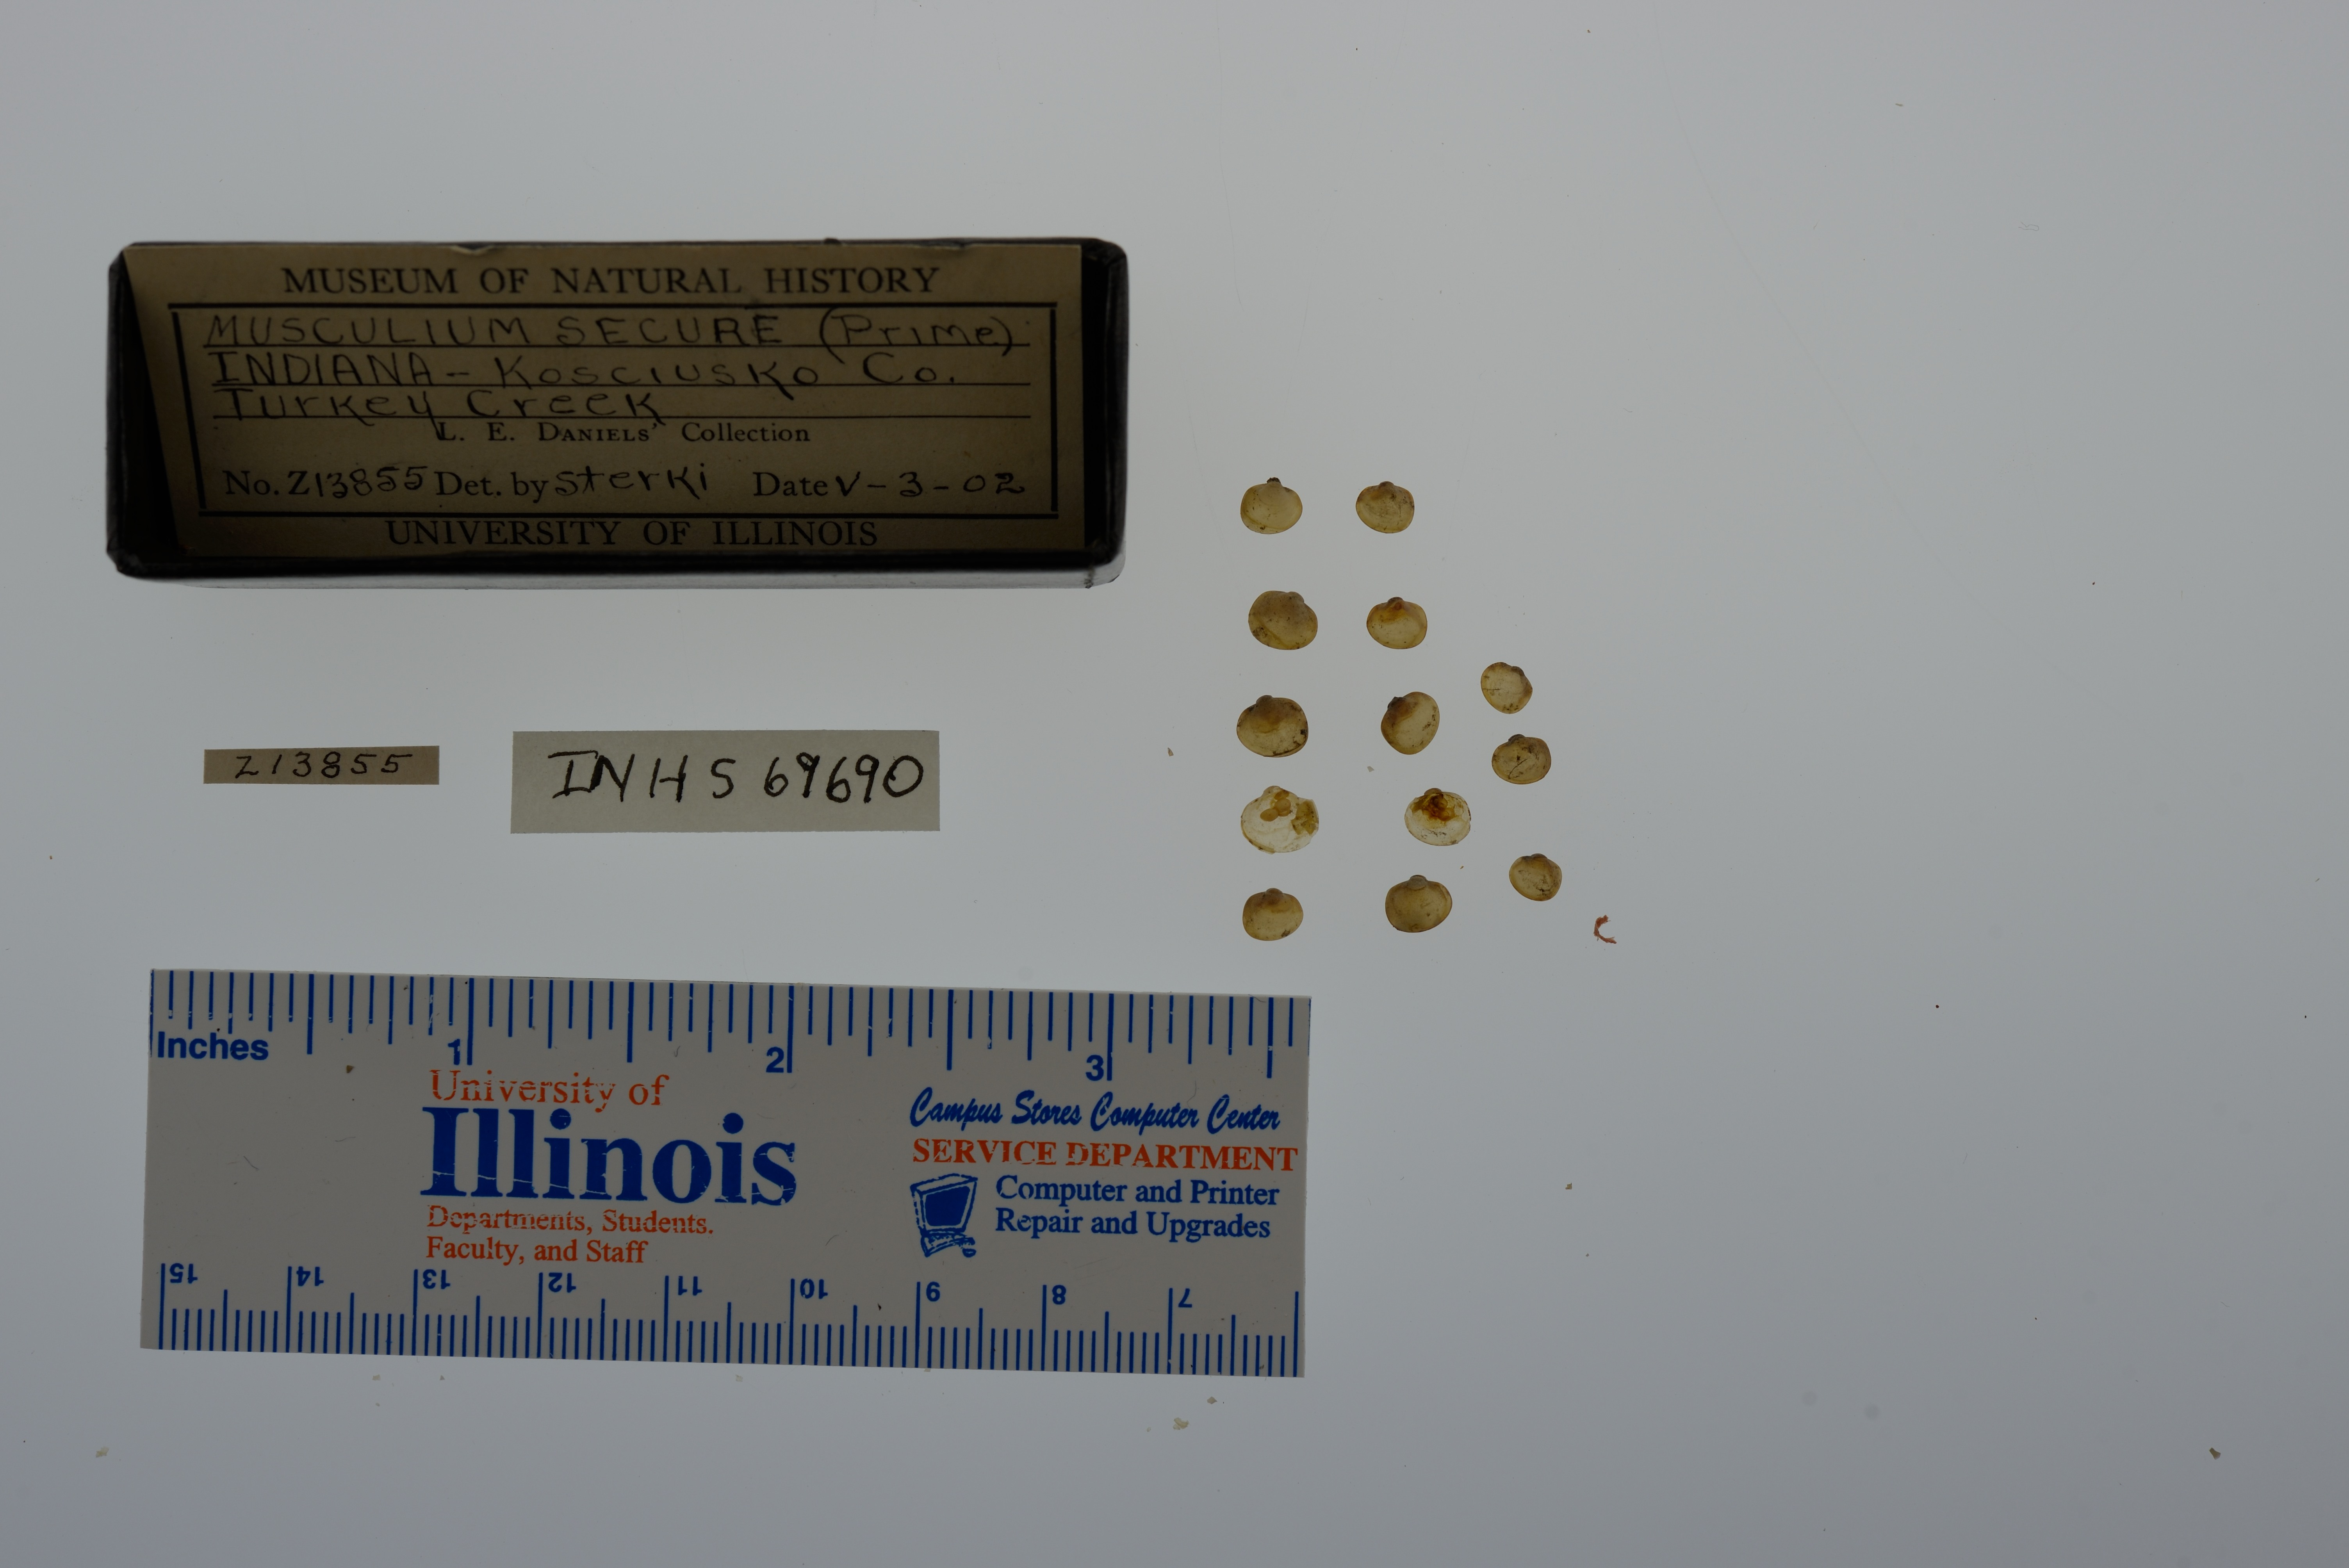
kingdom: Animalia
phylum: Mollusca
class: Bivalvia
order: Sphaeriida
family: Sphaeriidae
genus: Musculium
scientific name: Musculium securis
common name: Pond fingerclam
